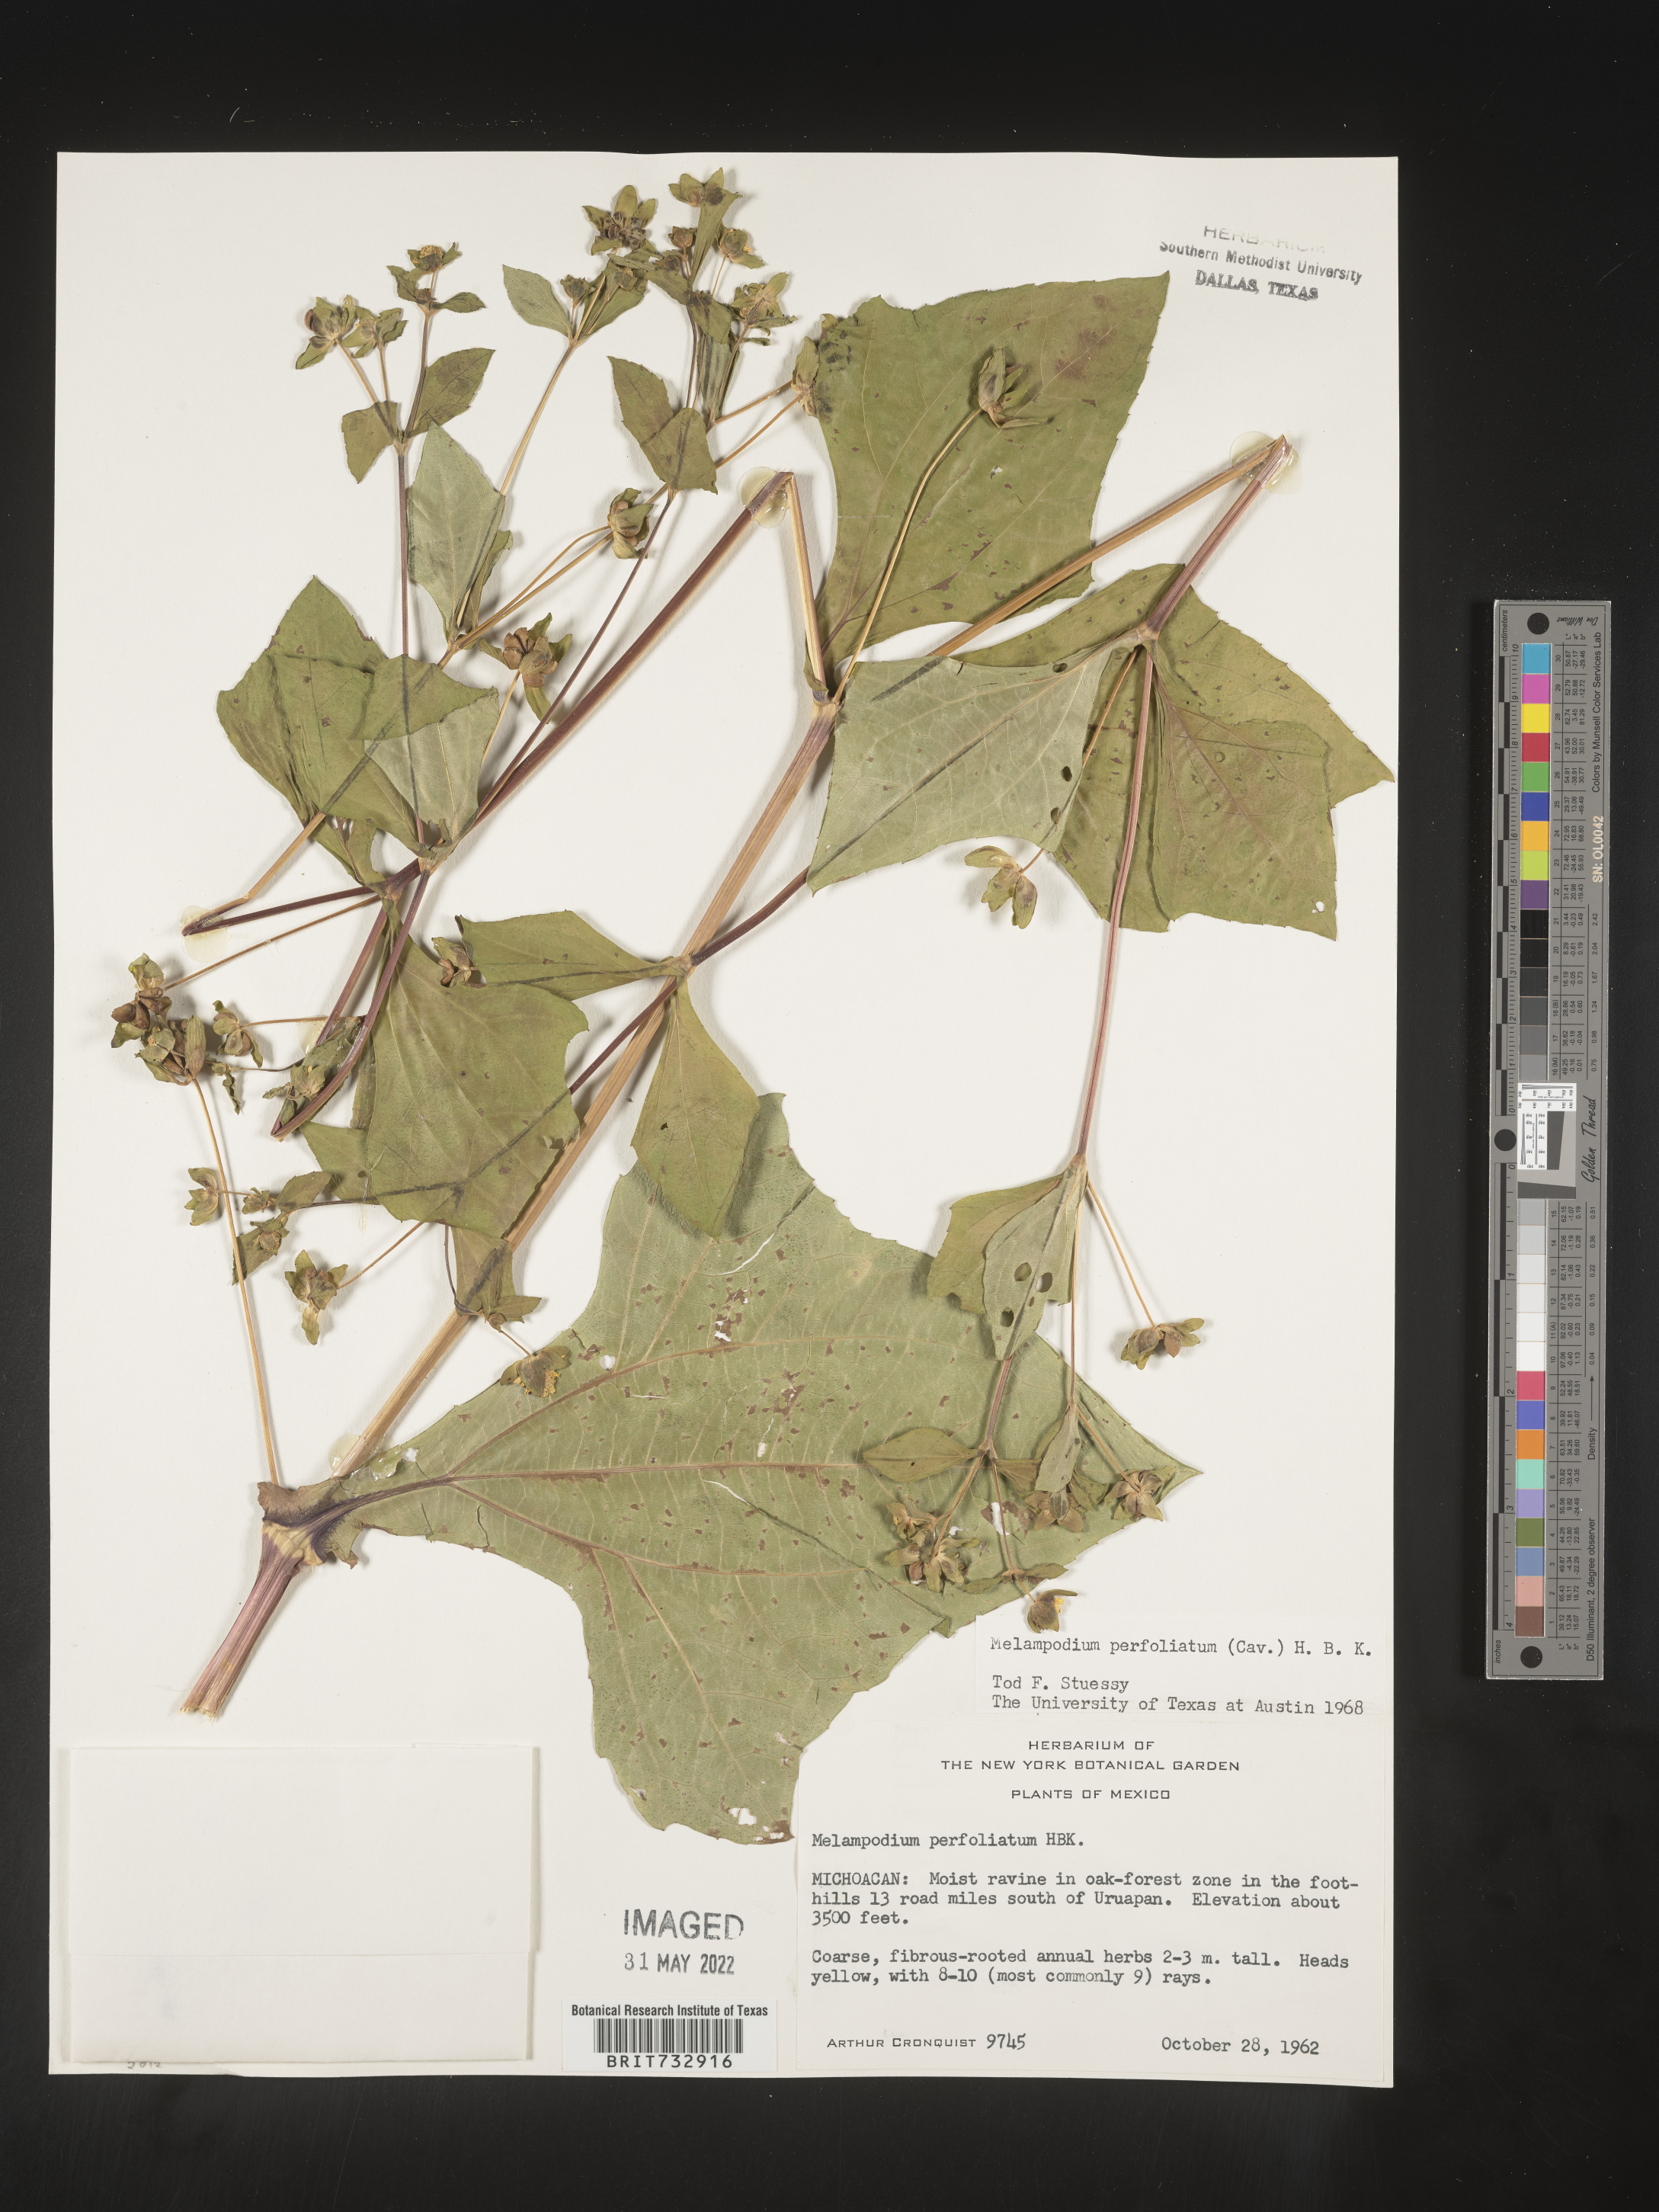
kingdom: Plantae
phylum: Tracheophyta
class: Magnoliopsida
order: Asterales
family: Asteraceae
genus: Melampodium
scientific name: Melampodium
